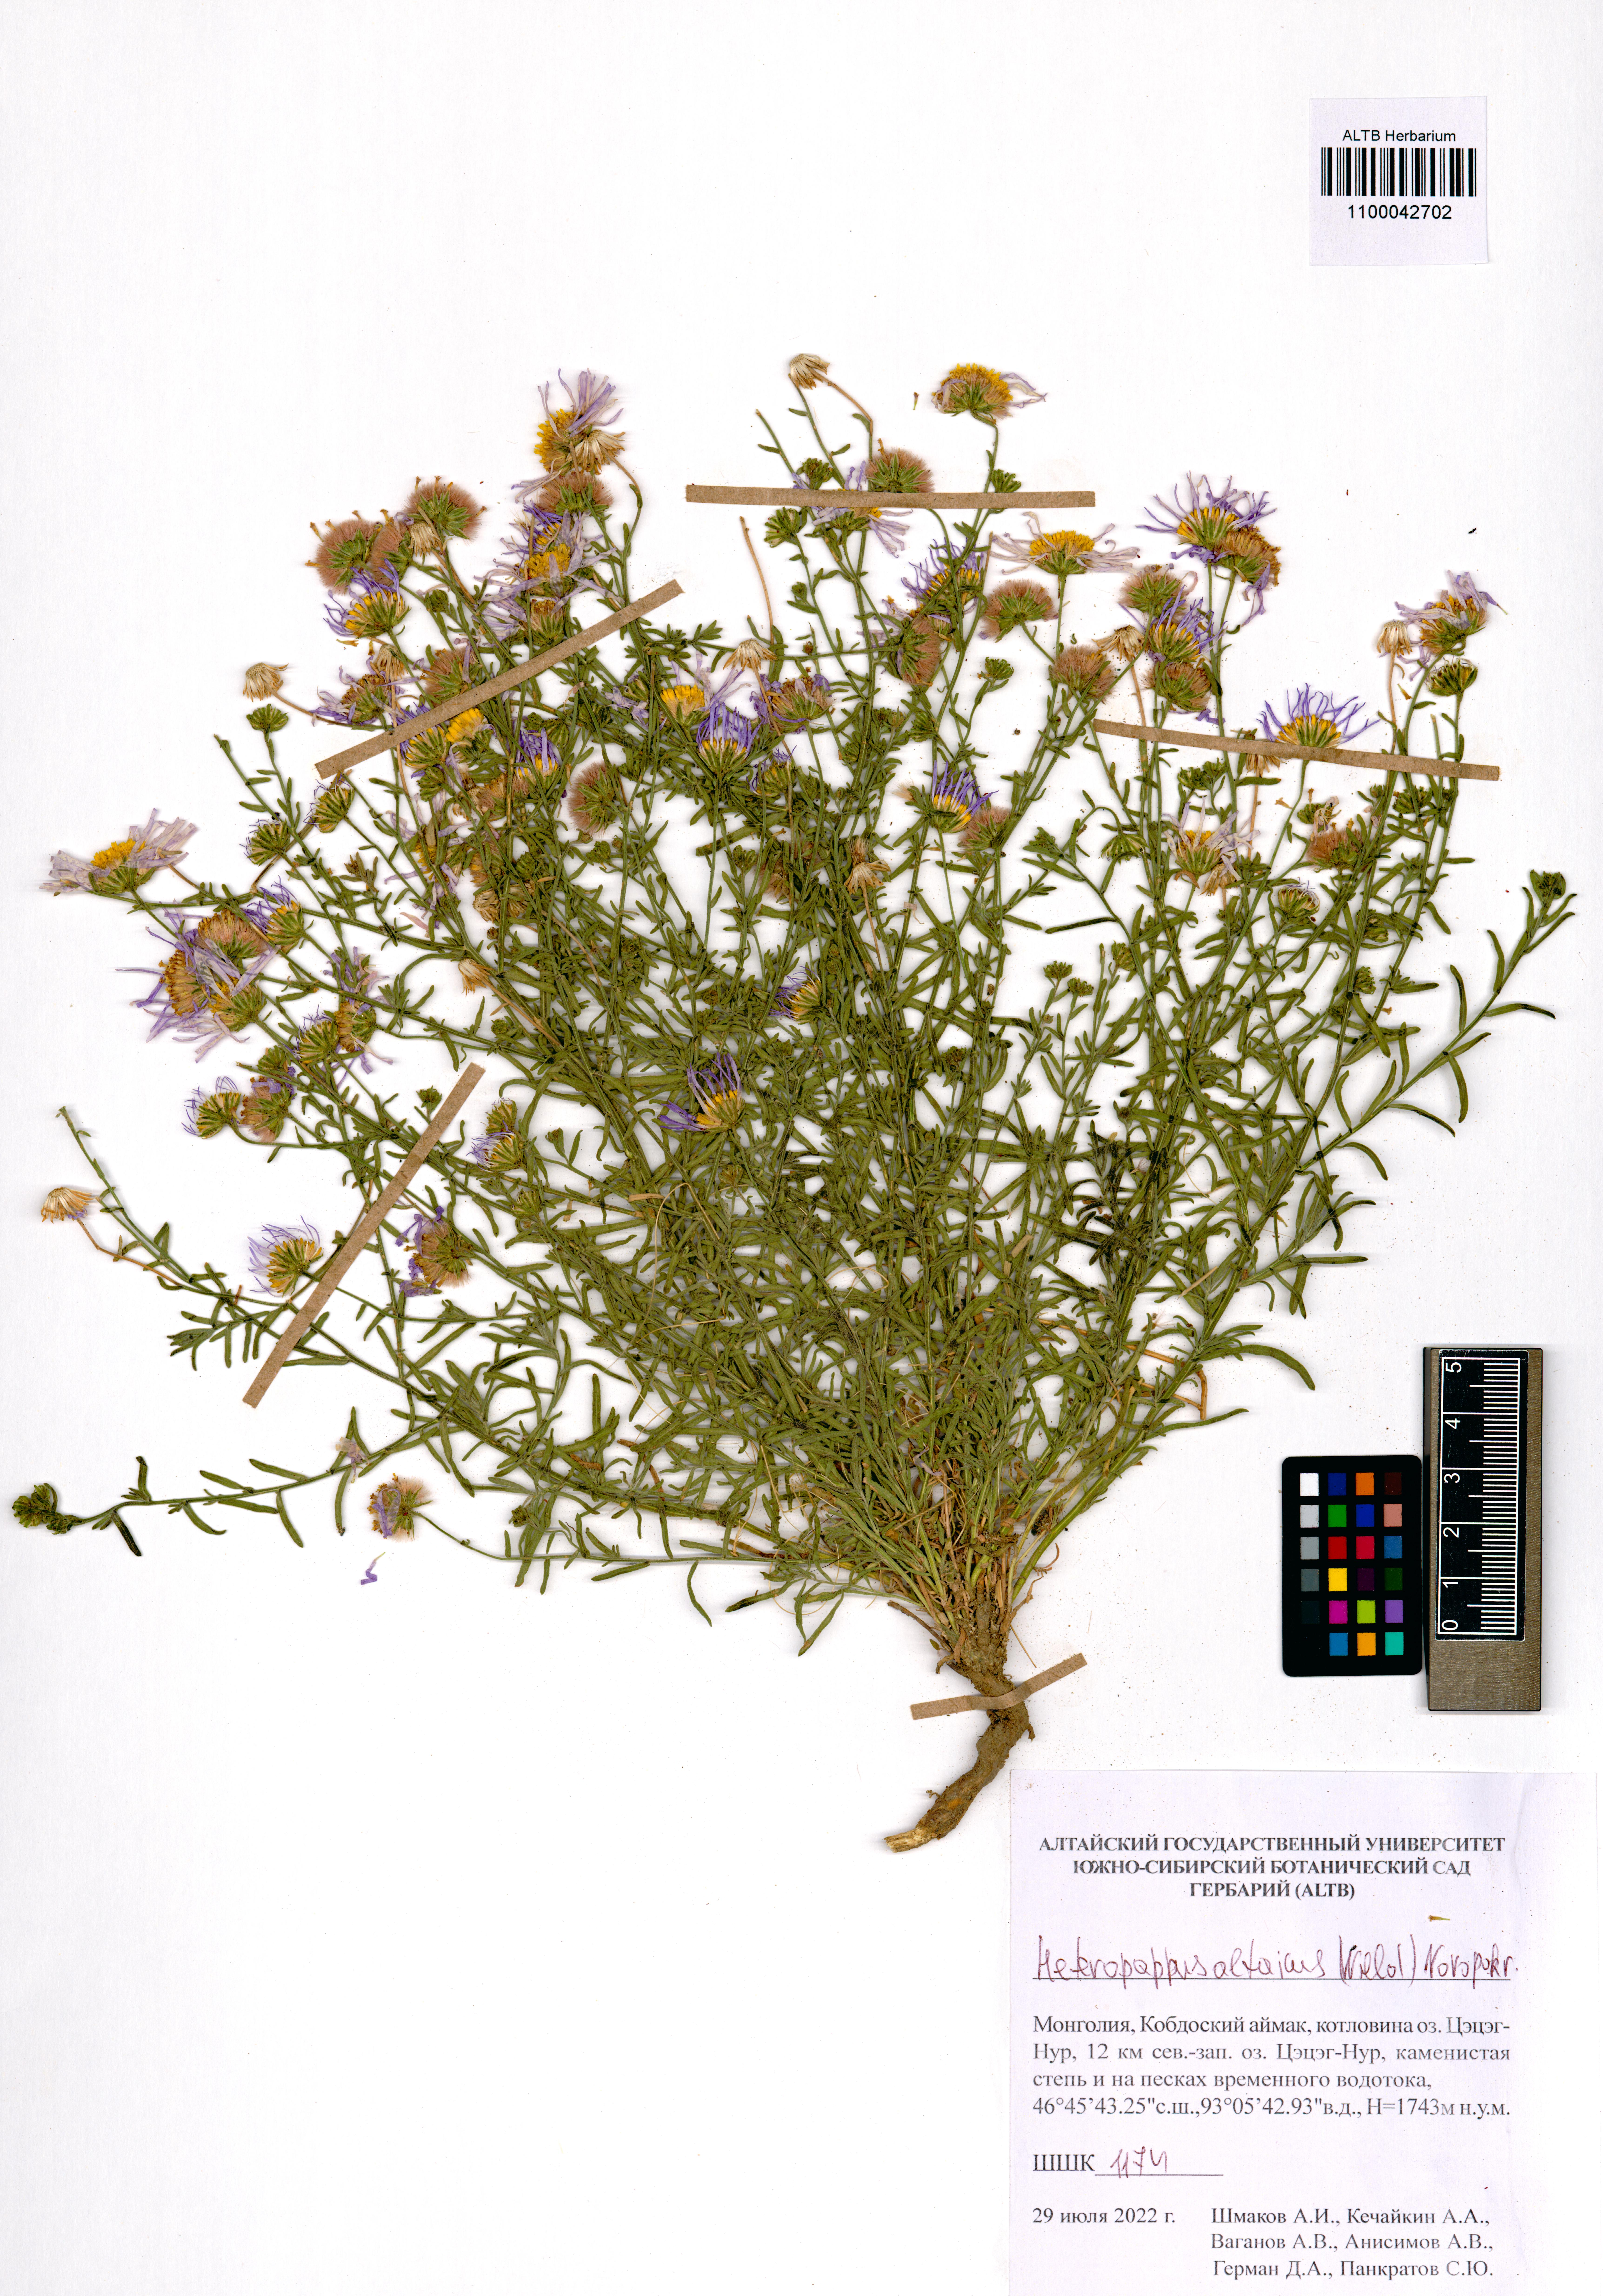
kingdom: Plantae
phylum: Tracheophyta
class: Magnoliopsida
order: Asterales
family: Asteraceae
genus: Heteropappus
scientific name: Heteropappus altaicus
